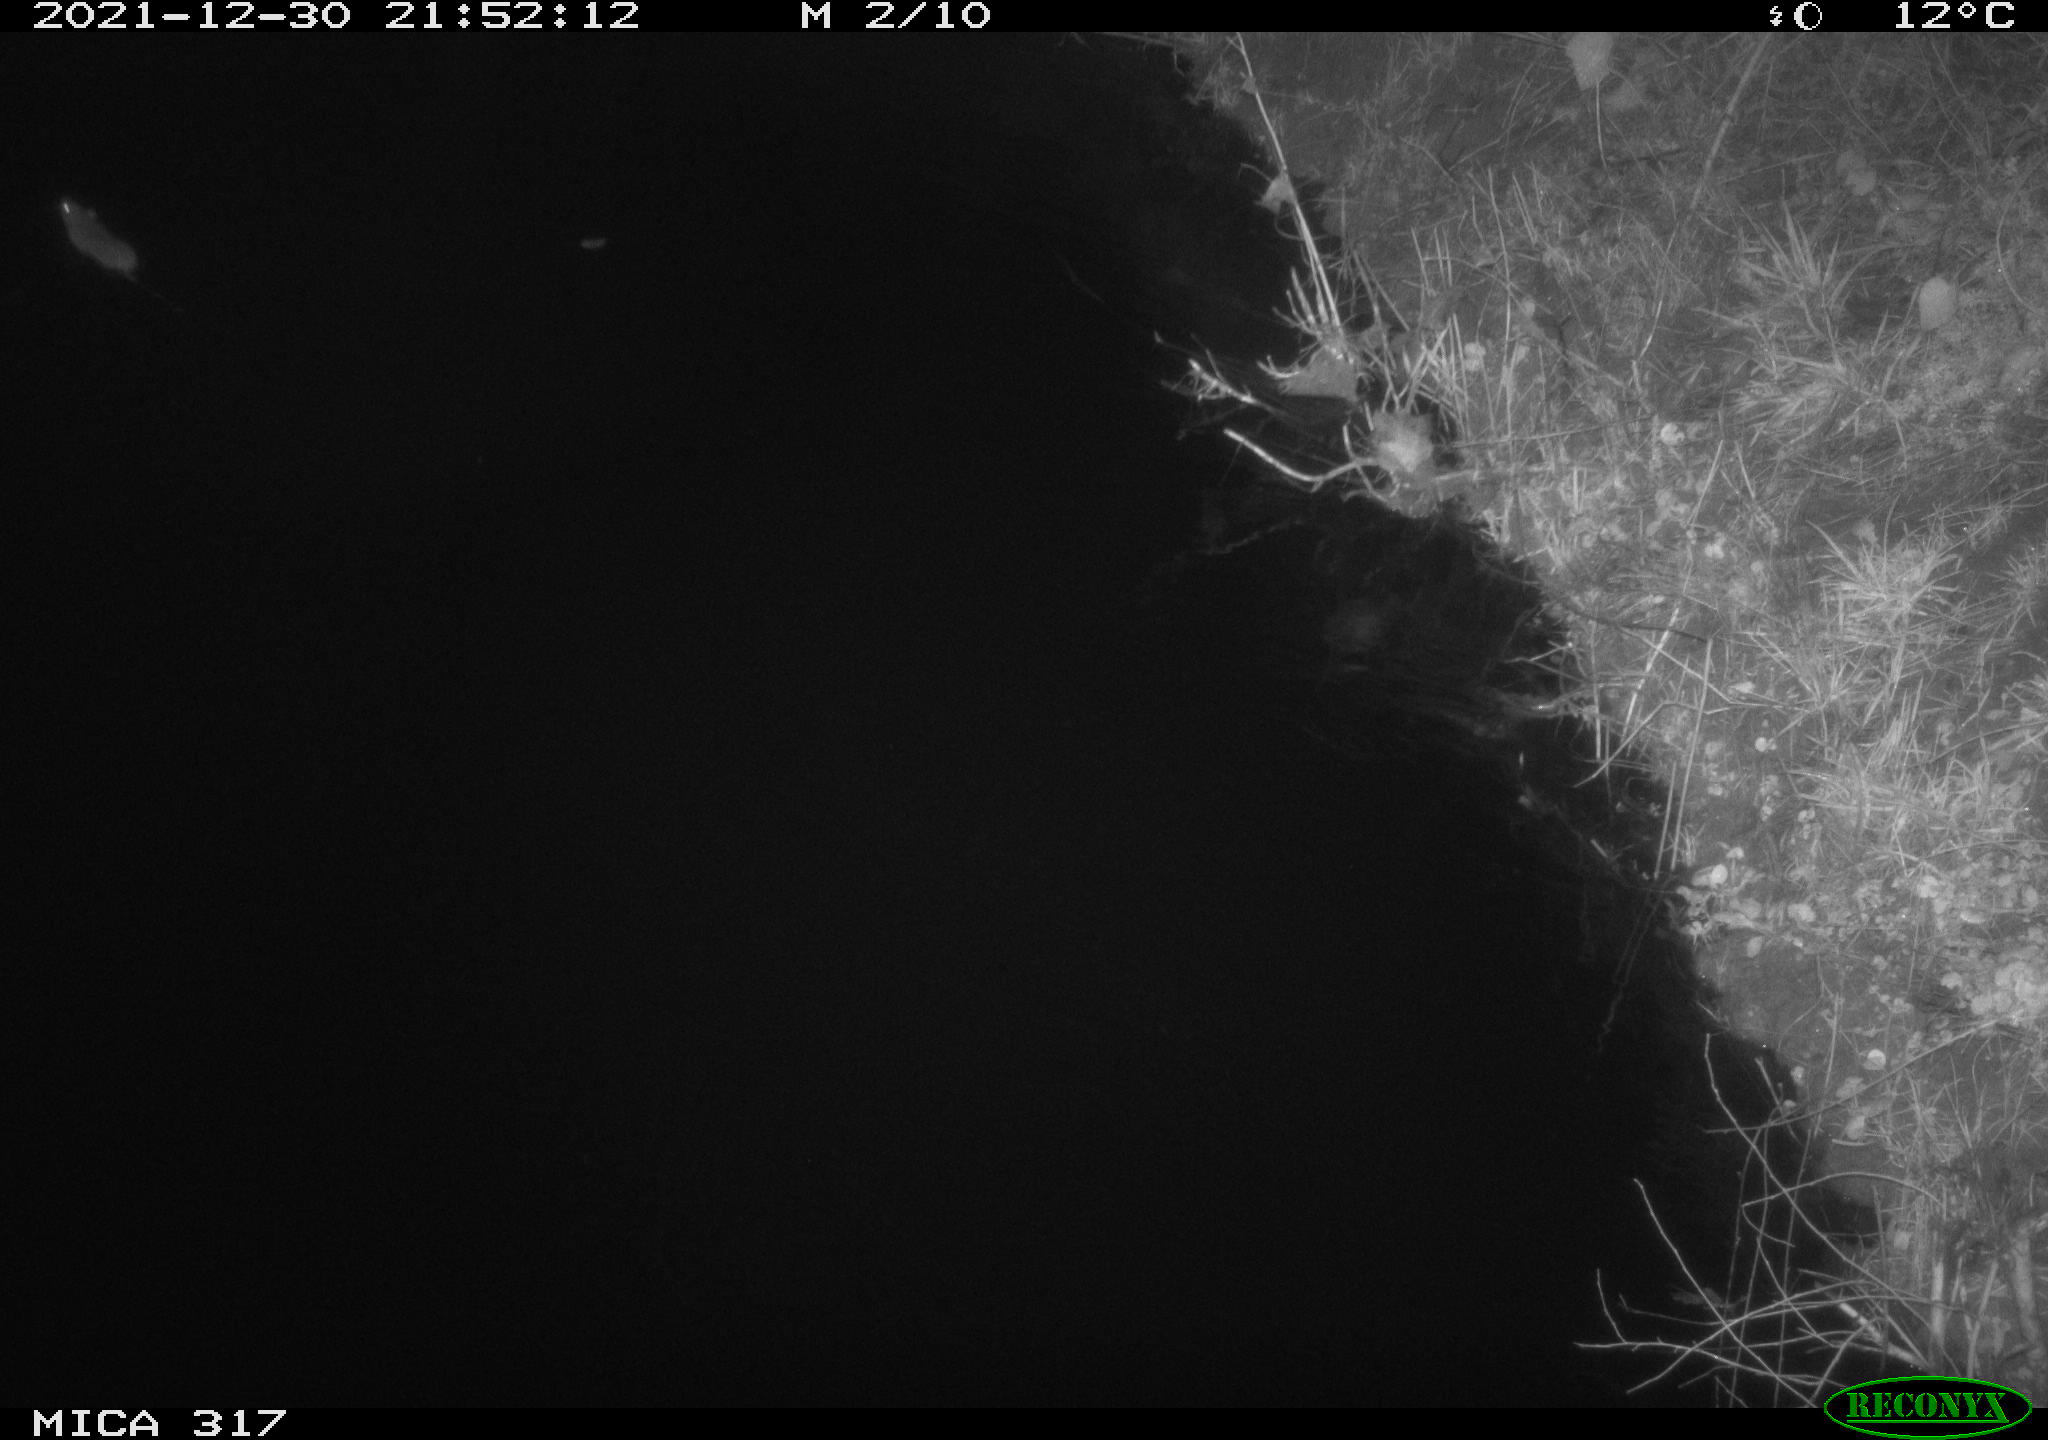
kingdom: Animalia
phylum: Chordata
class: Mammalia
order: Rodentia
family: Muridae
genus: Rattus
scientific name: Rattus norvegicus
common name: Brown rat
